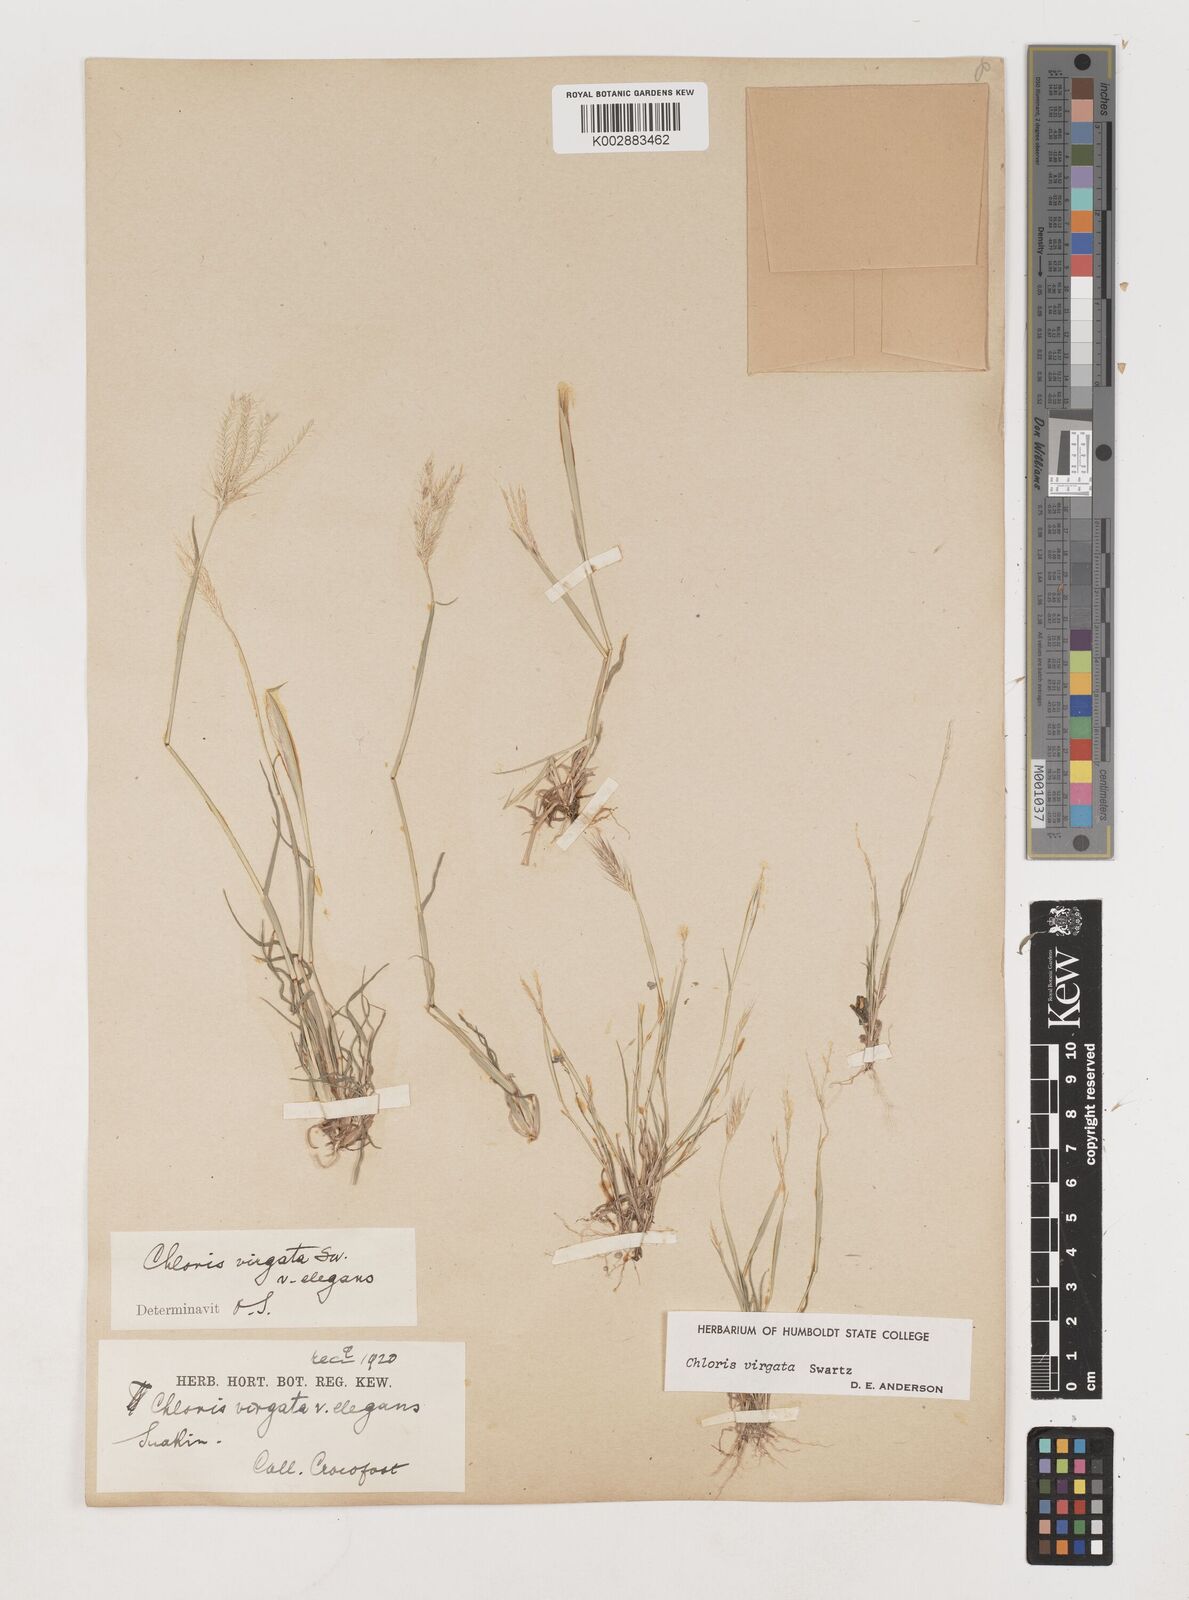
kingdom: Plantae
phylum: Tracheophyta
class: Liliopsida
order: Poales
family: Poaceae
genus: Chloris
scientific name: Chloris virgata
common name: Feathery rhodes-grass
